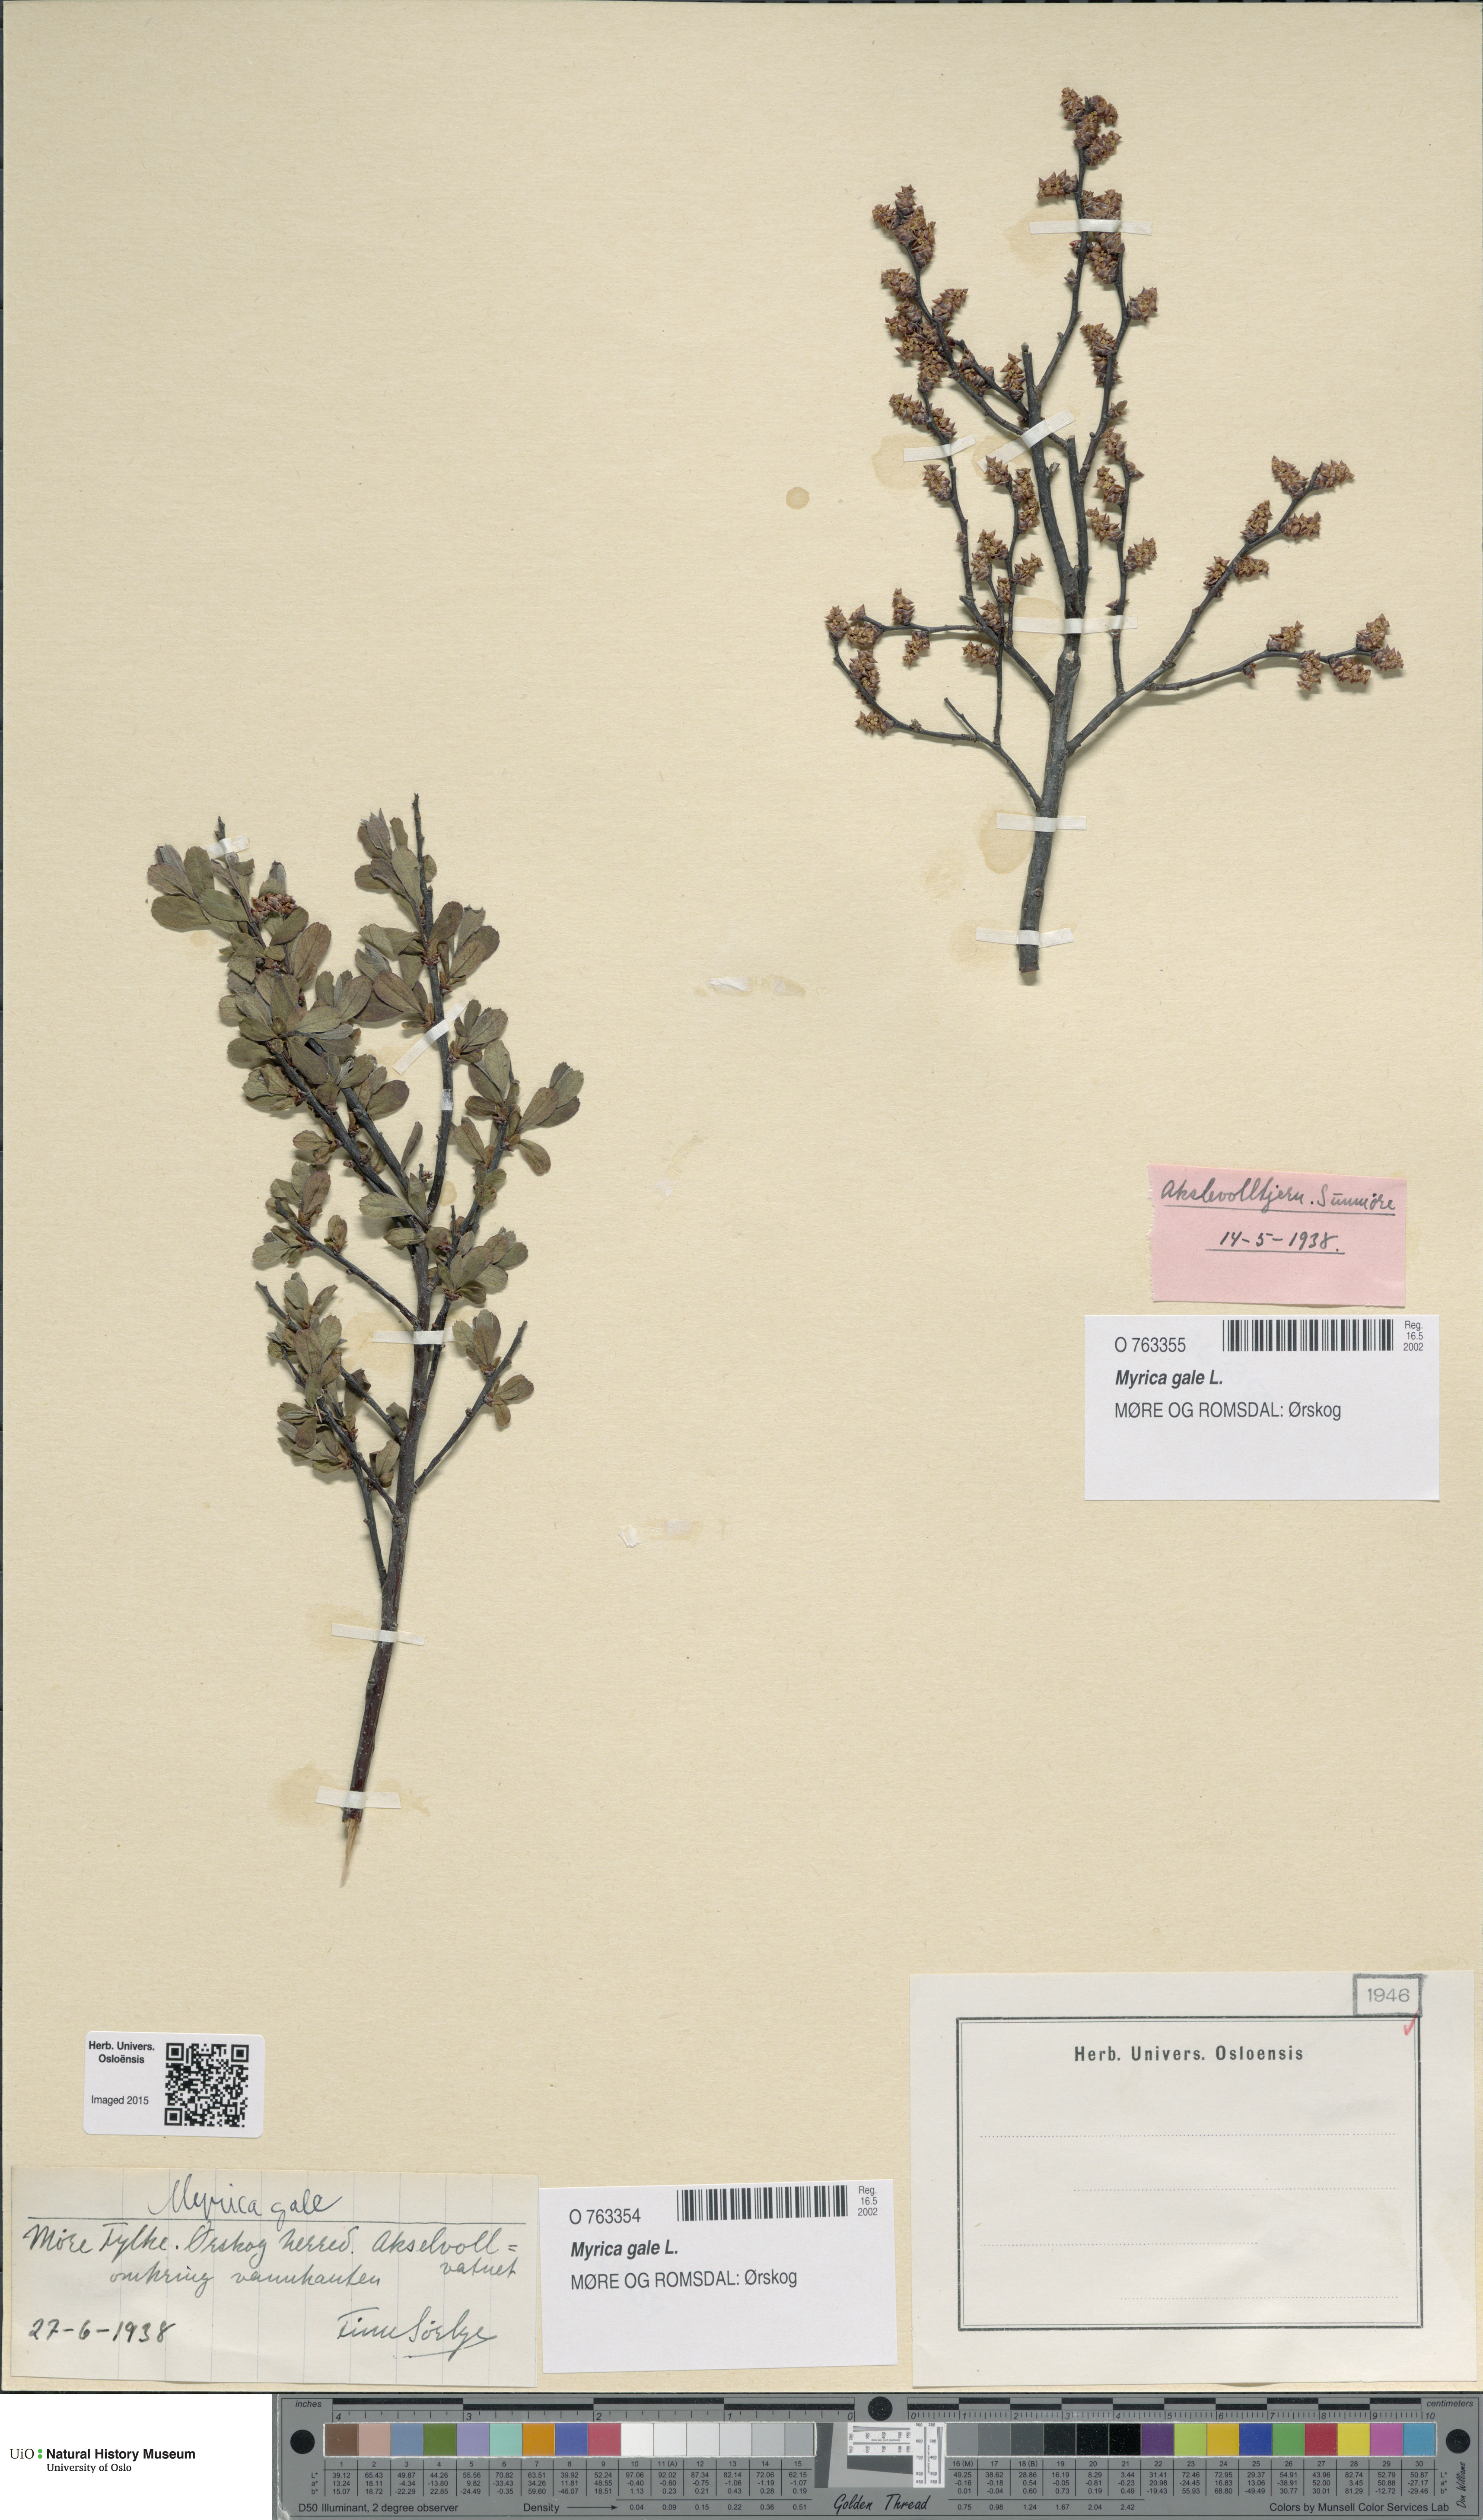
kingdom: Plantae
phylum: Tracheophyta
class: Magnoliopsida
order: Fagales
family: Myricaceae
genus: Myrica
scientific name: Myrica gale
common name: Sweet gale
